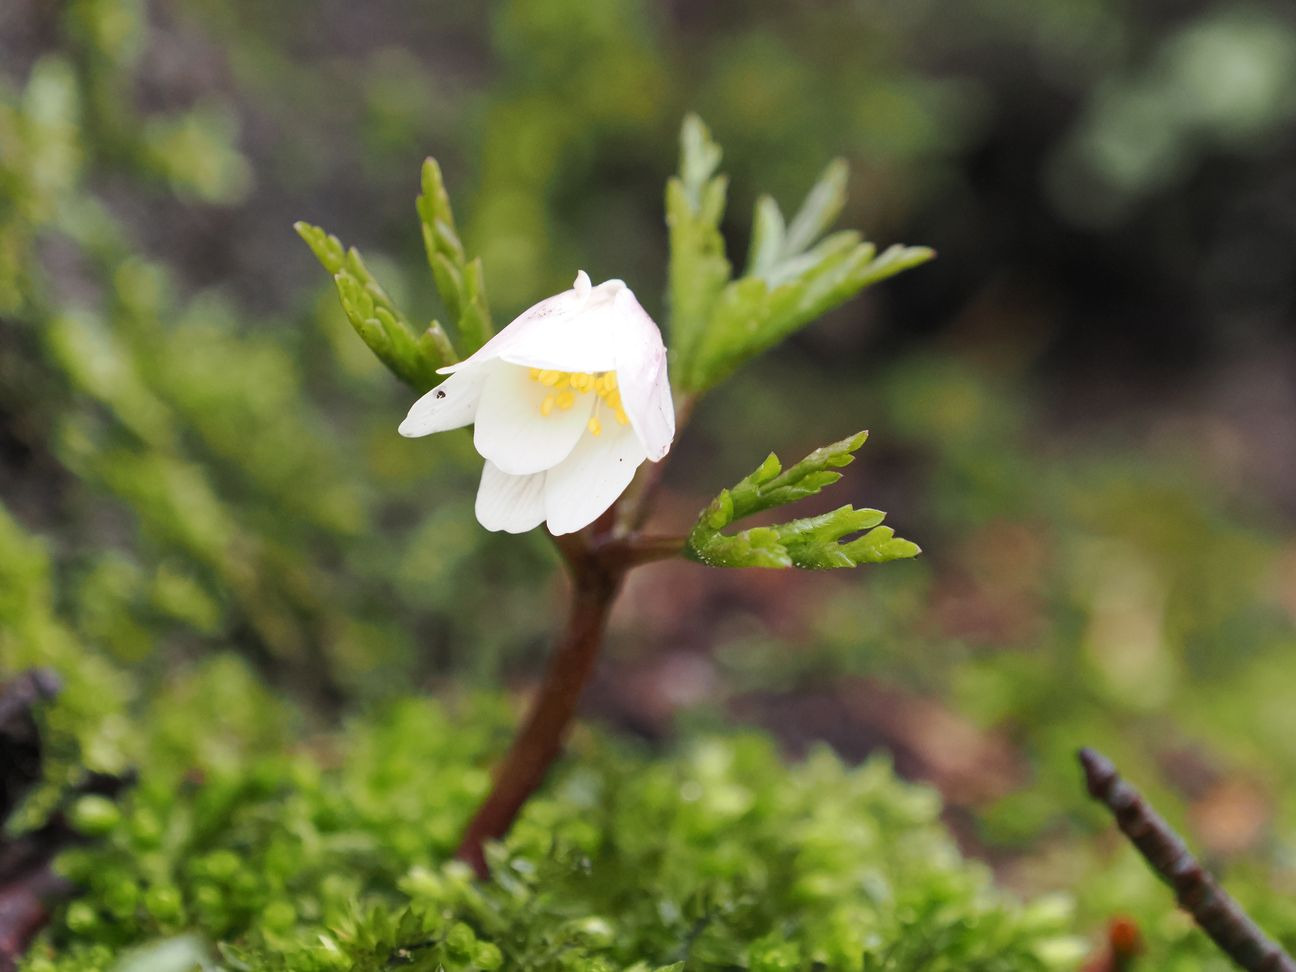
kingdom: Plantae
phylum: Tracheophyta
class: Magnoliopsida
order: Ranunculales
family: Ranunculaceae
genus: Anemone
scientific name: Anemone nemorosa
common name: Hvid anemone
